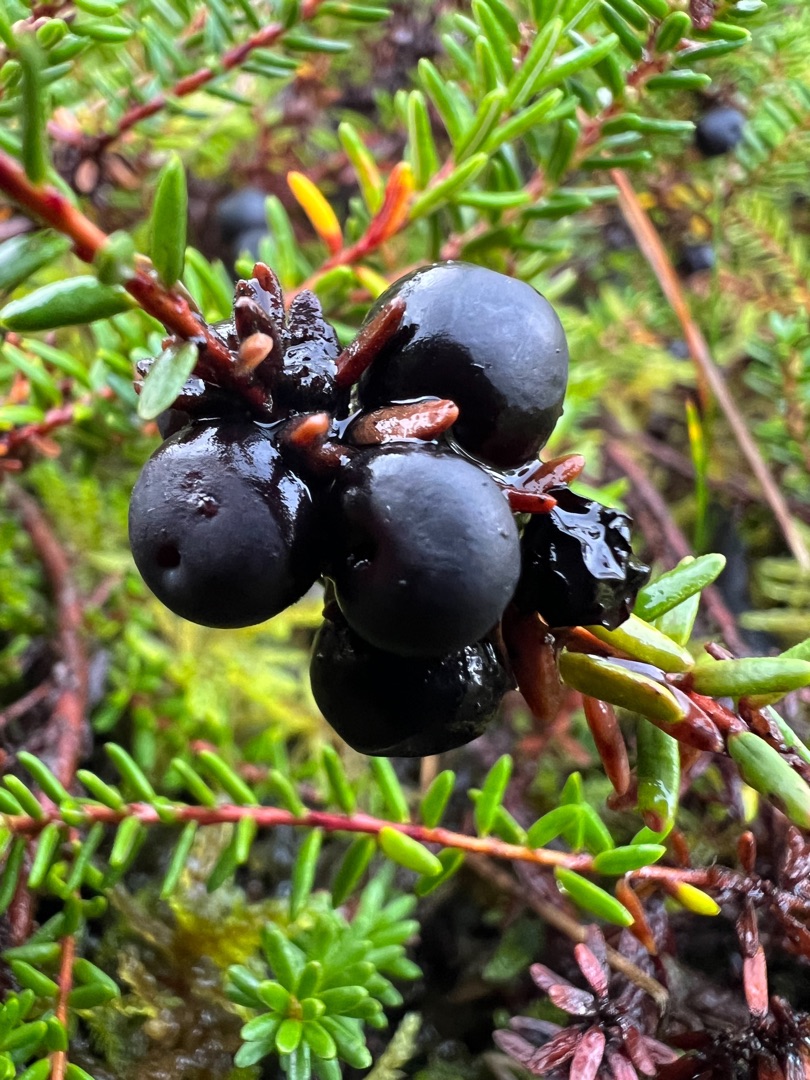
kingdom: Plantae
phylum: Tracheophyta
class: Magnoliopsida
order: Ericales
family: Ericaceae
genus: Empetrum
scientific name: Empetrum nigrum
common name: Revling
